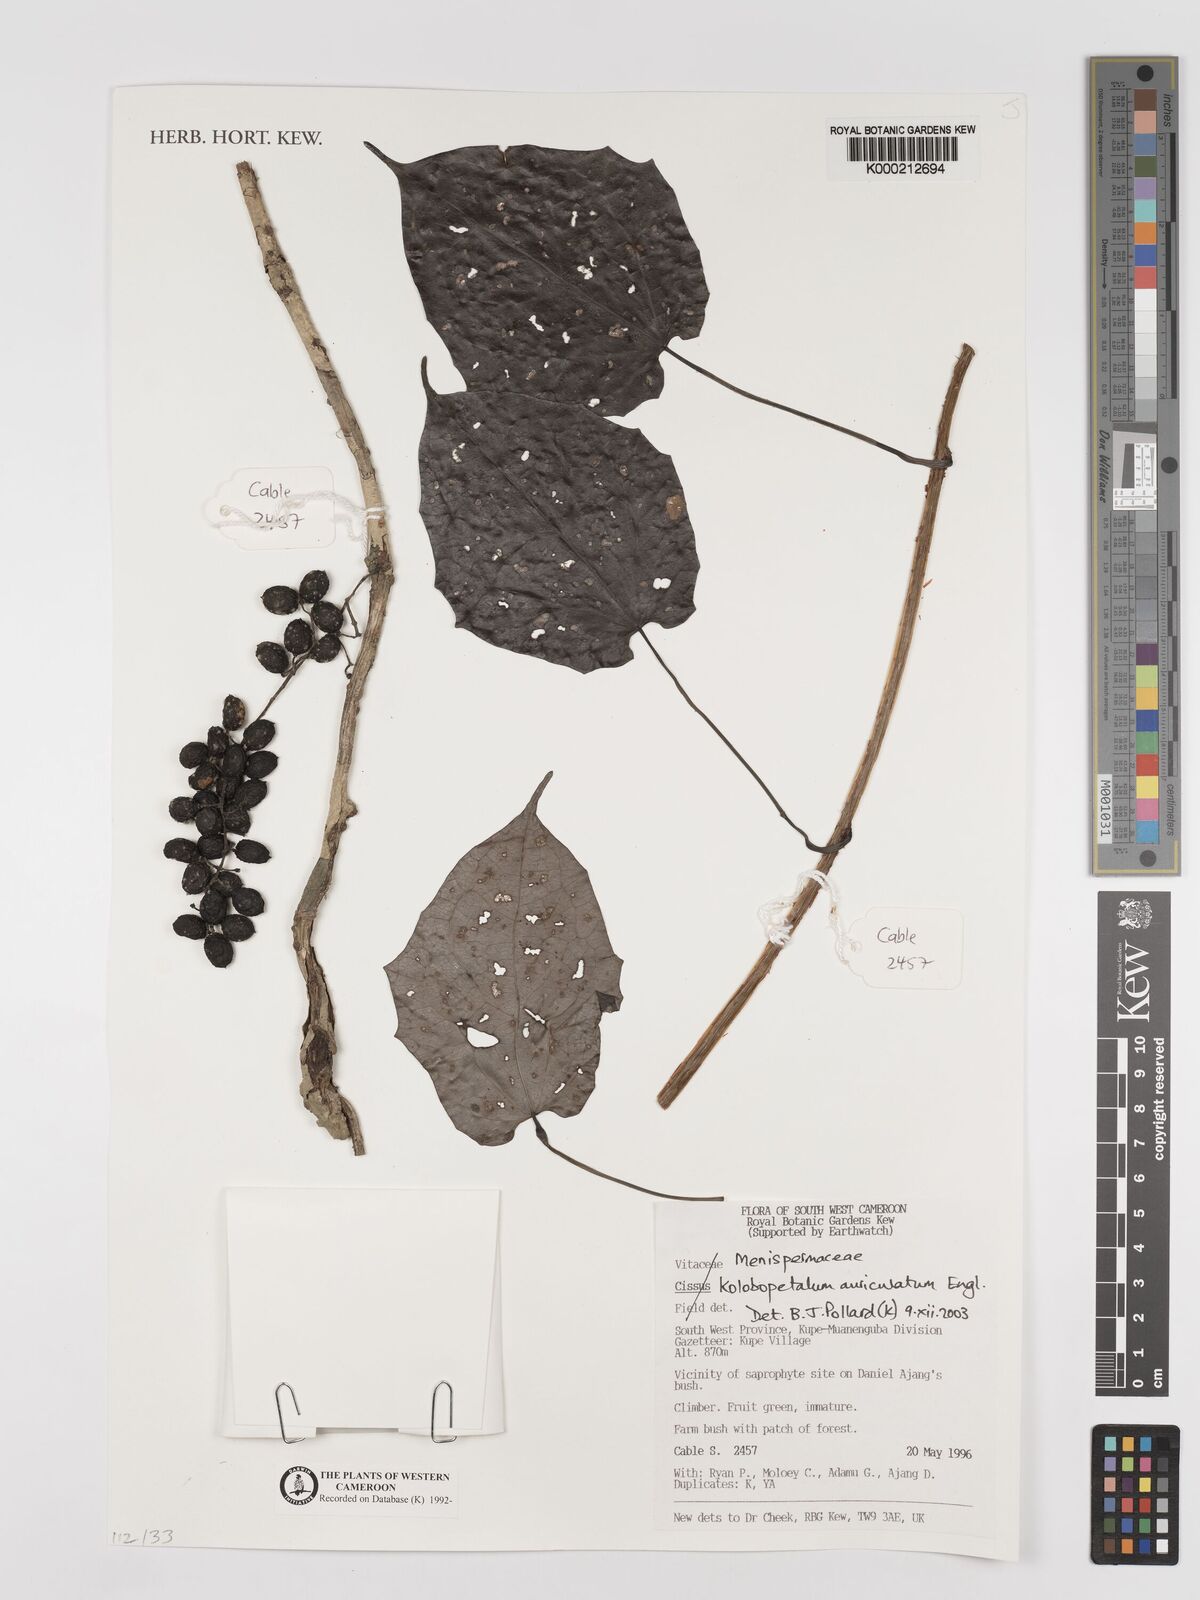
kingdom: Plantae
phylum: Tracheophyta
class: Magnoliopsida
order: Ranunculales
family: Menispermaceae
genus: Kolobopetalum
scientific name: Kolobopetalum auriculatum
